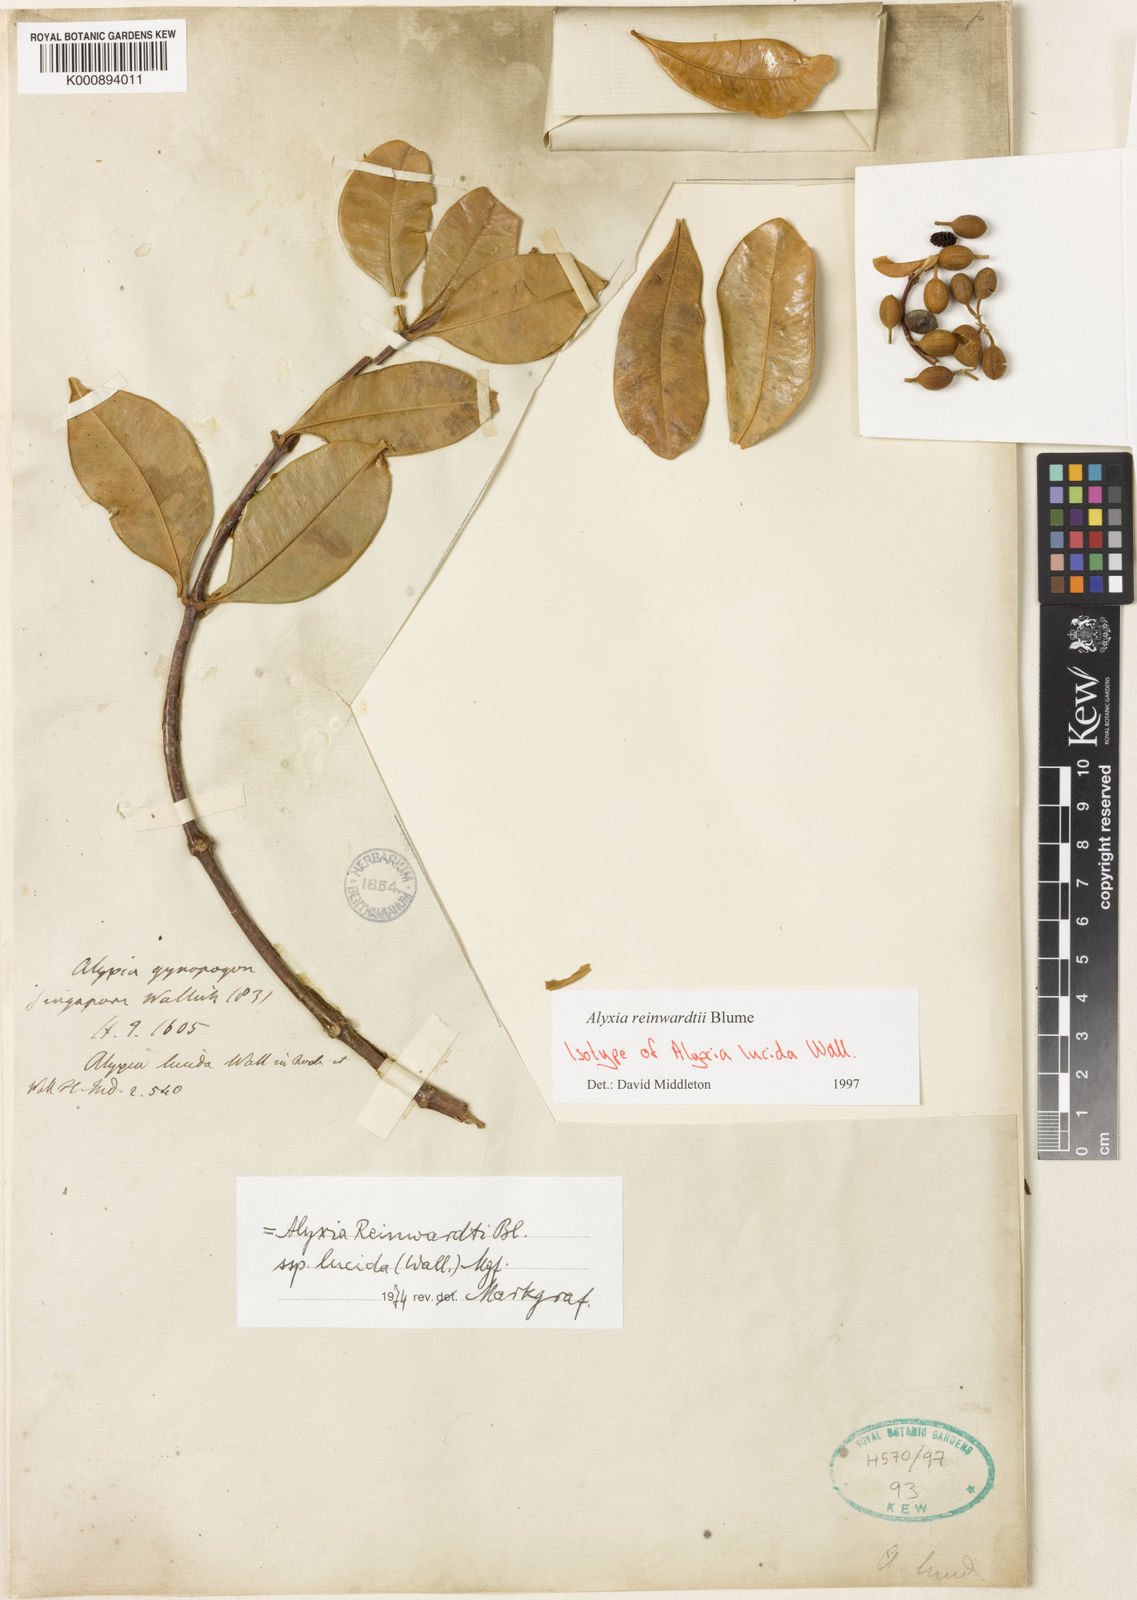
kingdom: Plantae
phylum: Tracheophyta
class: Magnoliopsida
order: Gentianales
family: Apocynaceae
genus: Alyxia
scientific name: Alyxia reinwardtii
